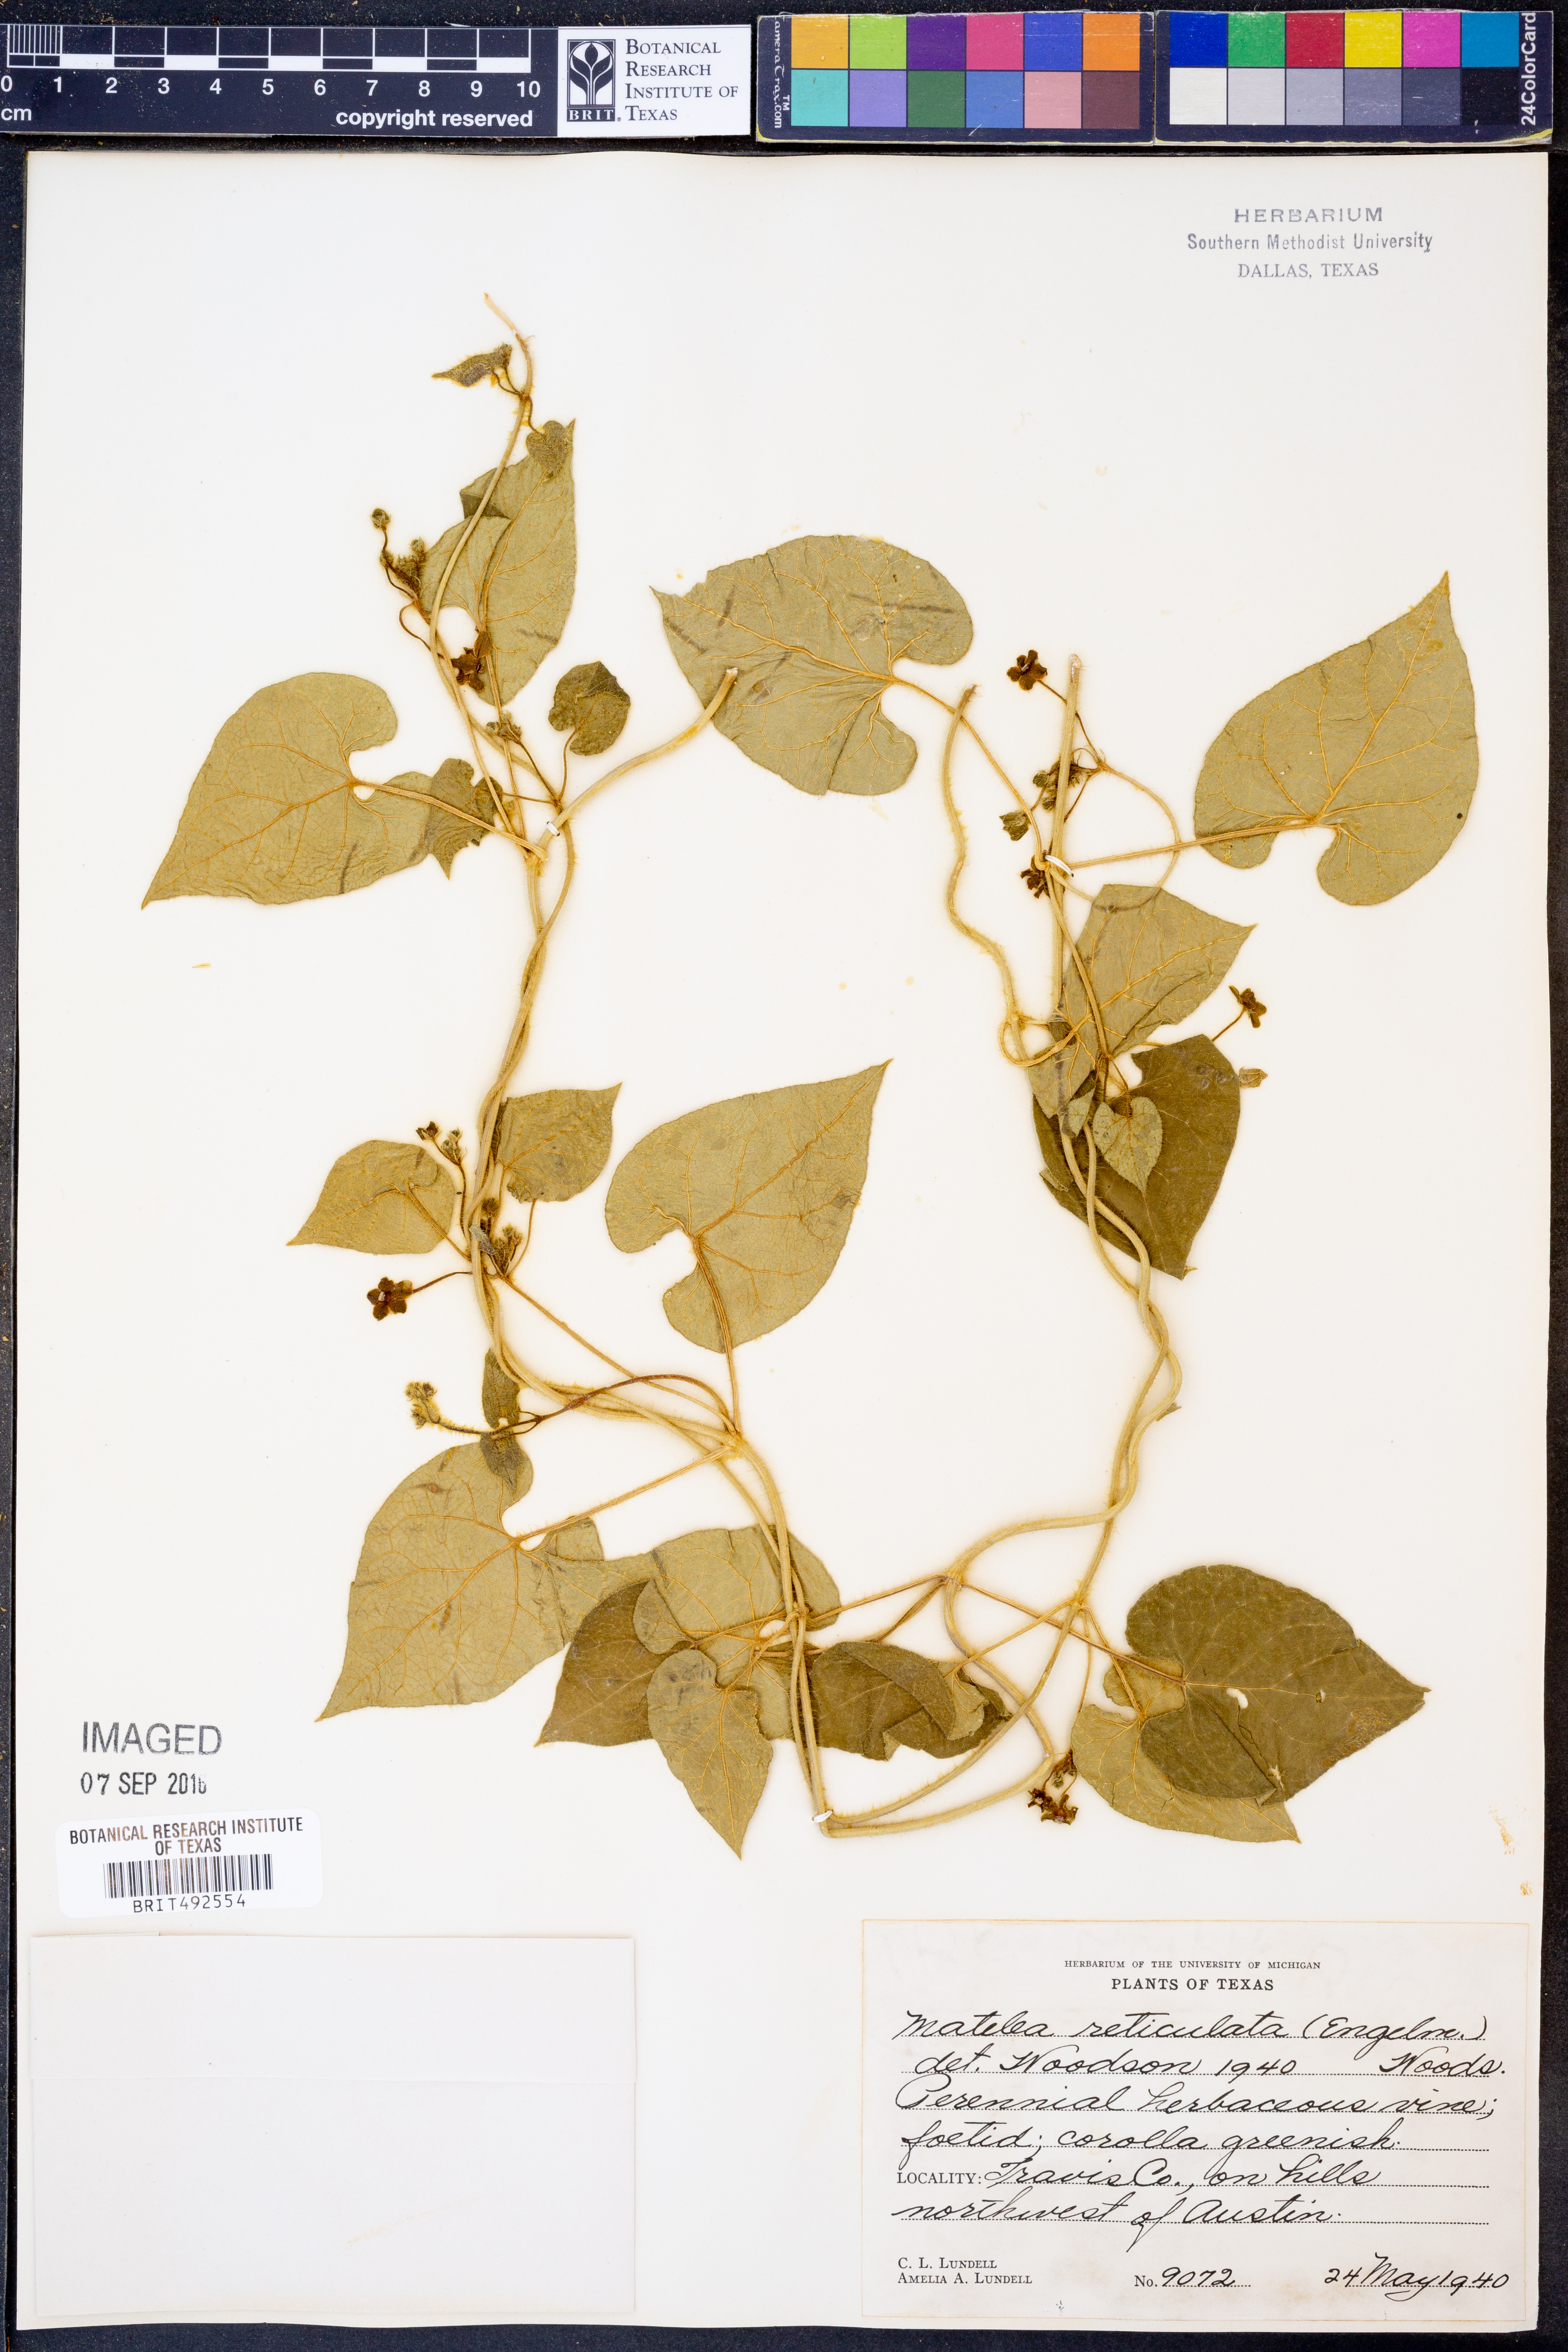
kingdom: Plantae
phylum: Tracheophyta
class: Magnoliopsida
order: Gentianales
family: Apocynaceae
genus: Dictyanthus
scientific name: Dictyanthus reticulatus
